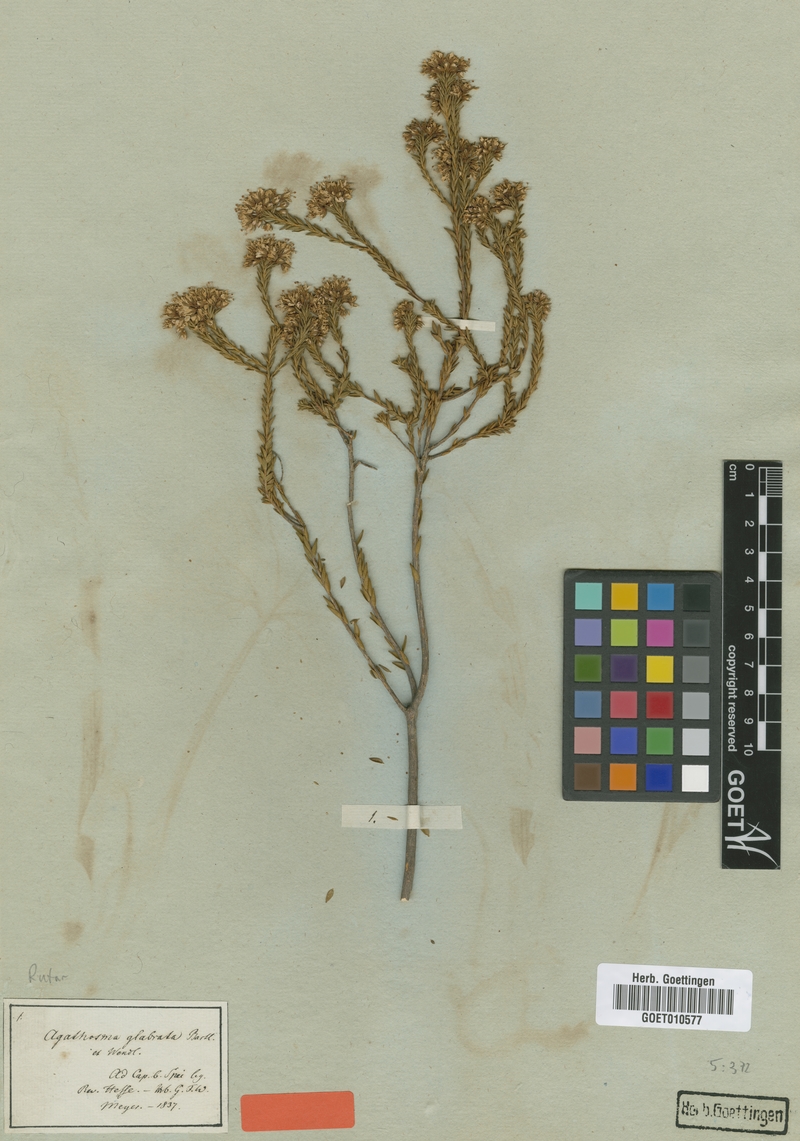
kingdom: Plantae
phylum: Tracheophyta
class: Magnoliopsida
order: Sapindales
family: Rutaceae
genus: Agathosma
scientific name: Agathosma glabrata
